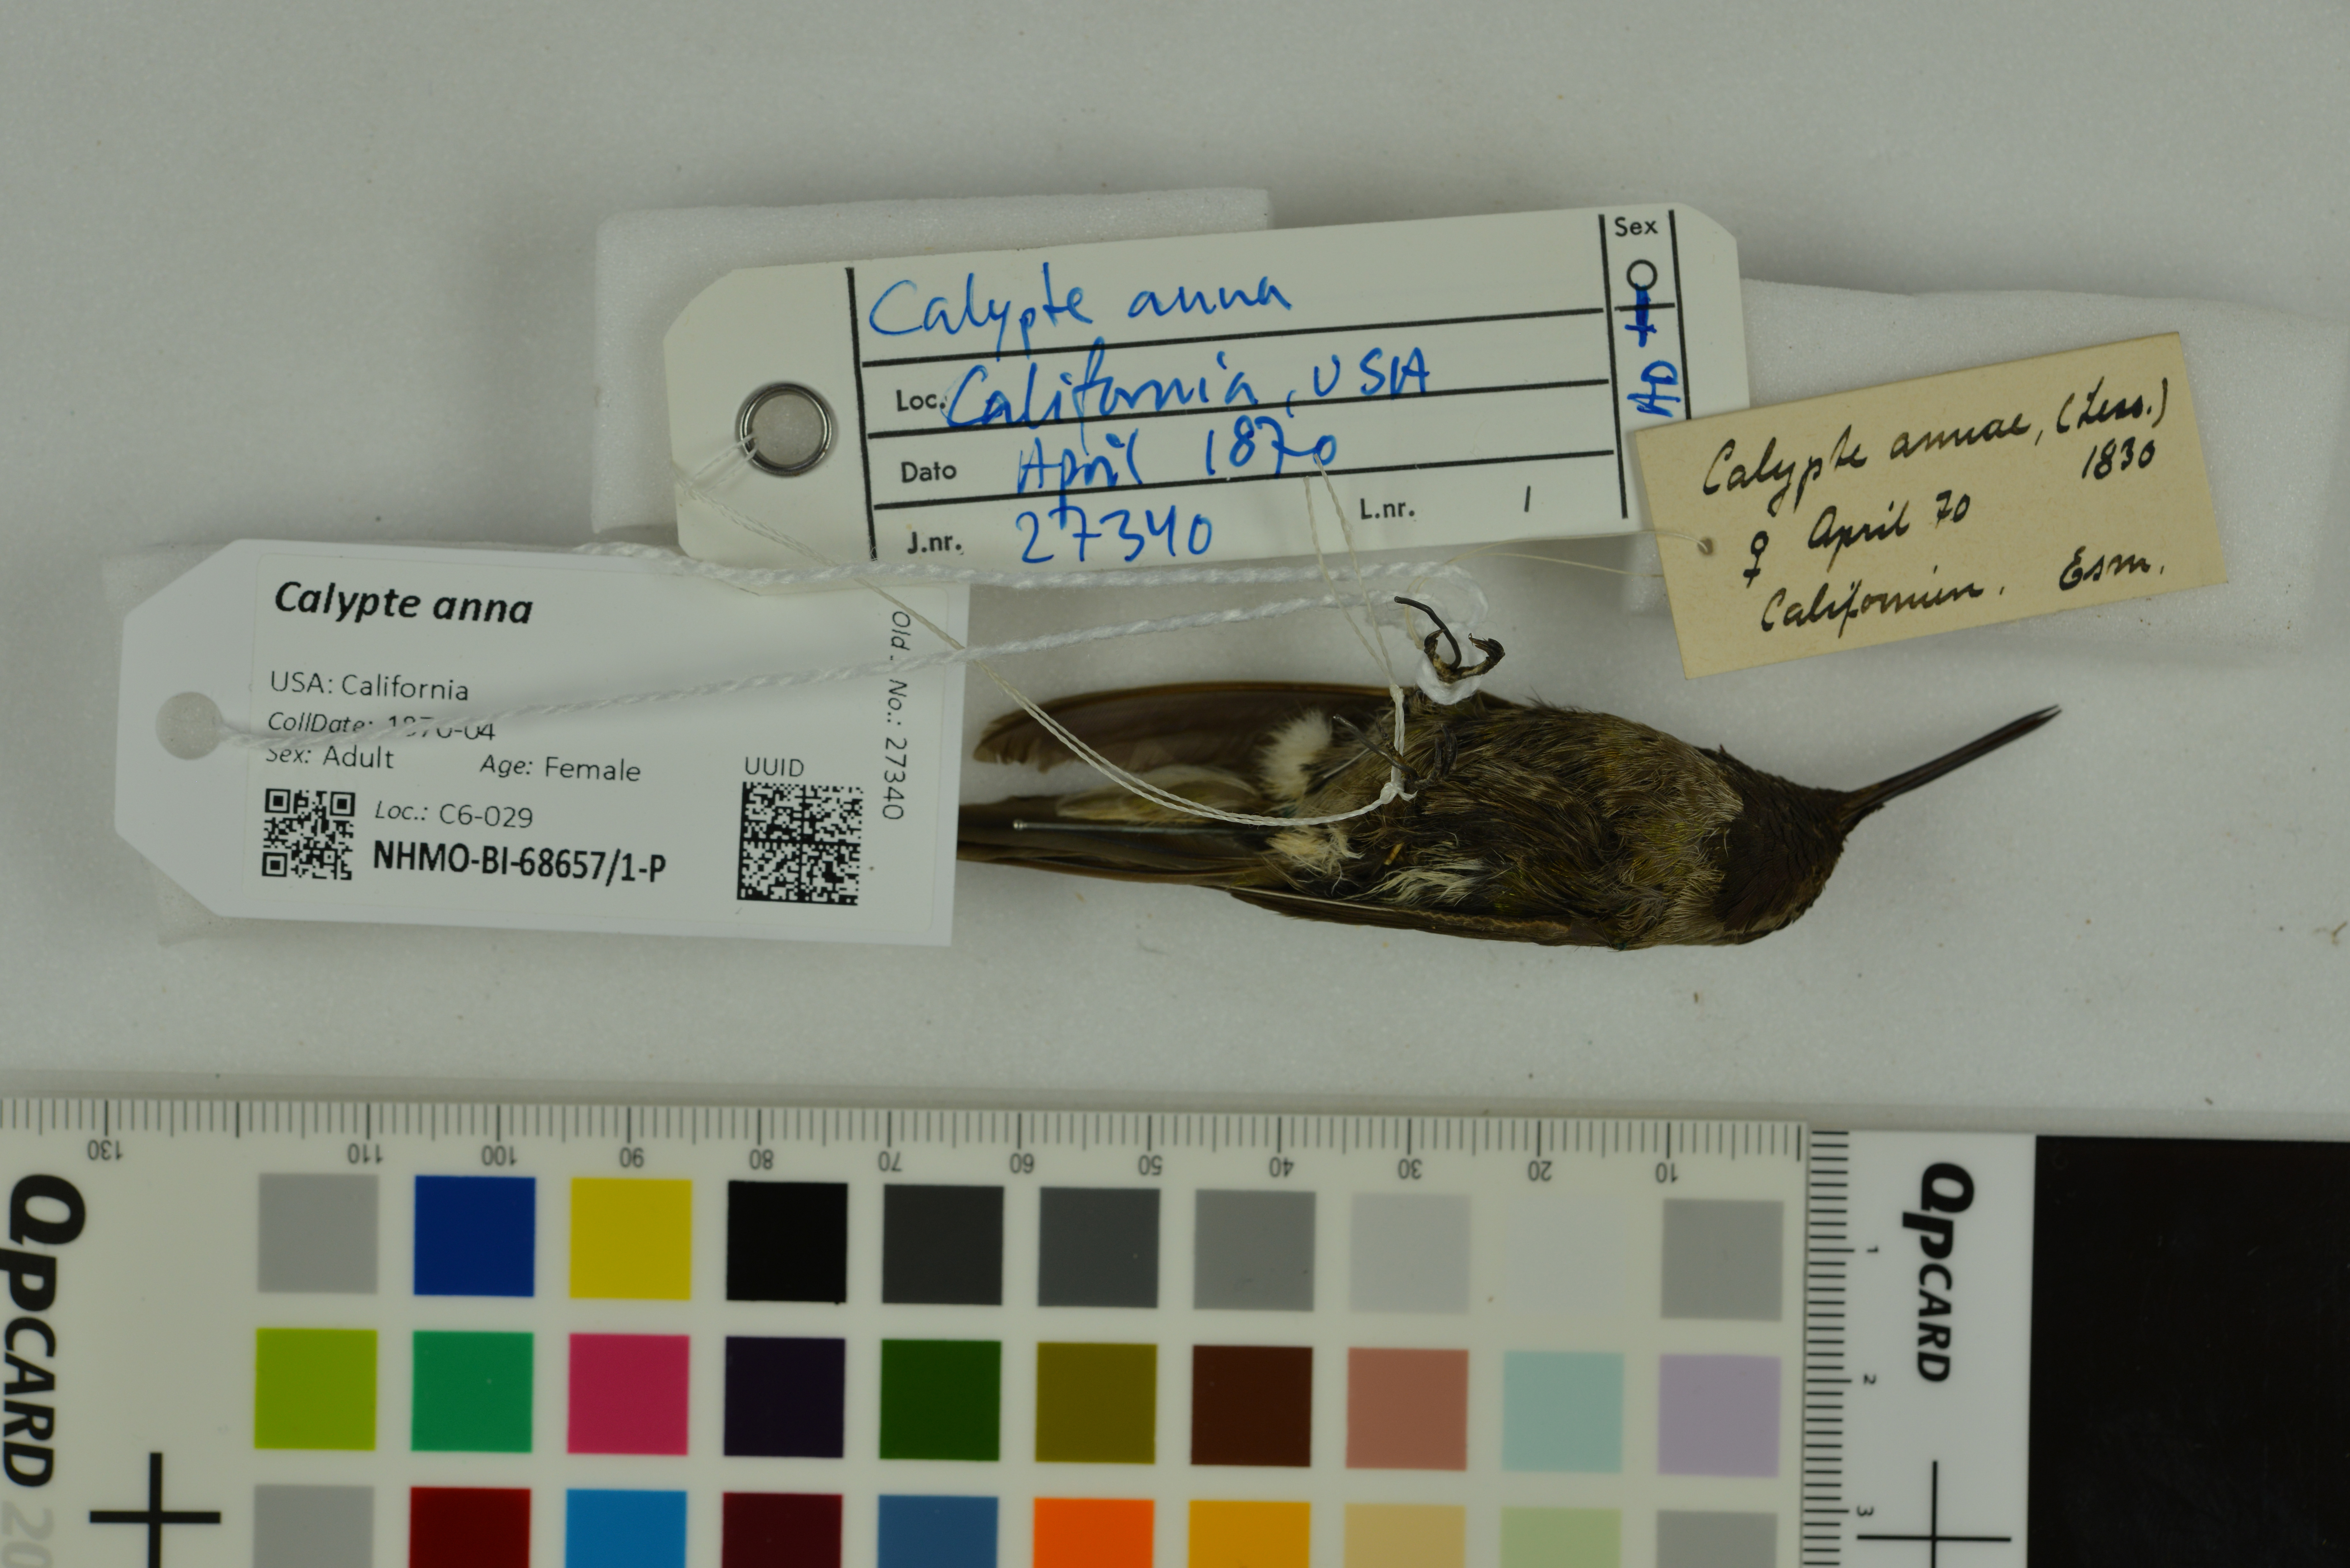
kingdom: Animalia
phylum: Chordata
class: Aves
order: Apodiformes
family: Trochilidae
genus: Calypte
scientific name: Calypte anna
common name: Anna's hummingbird
